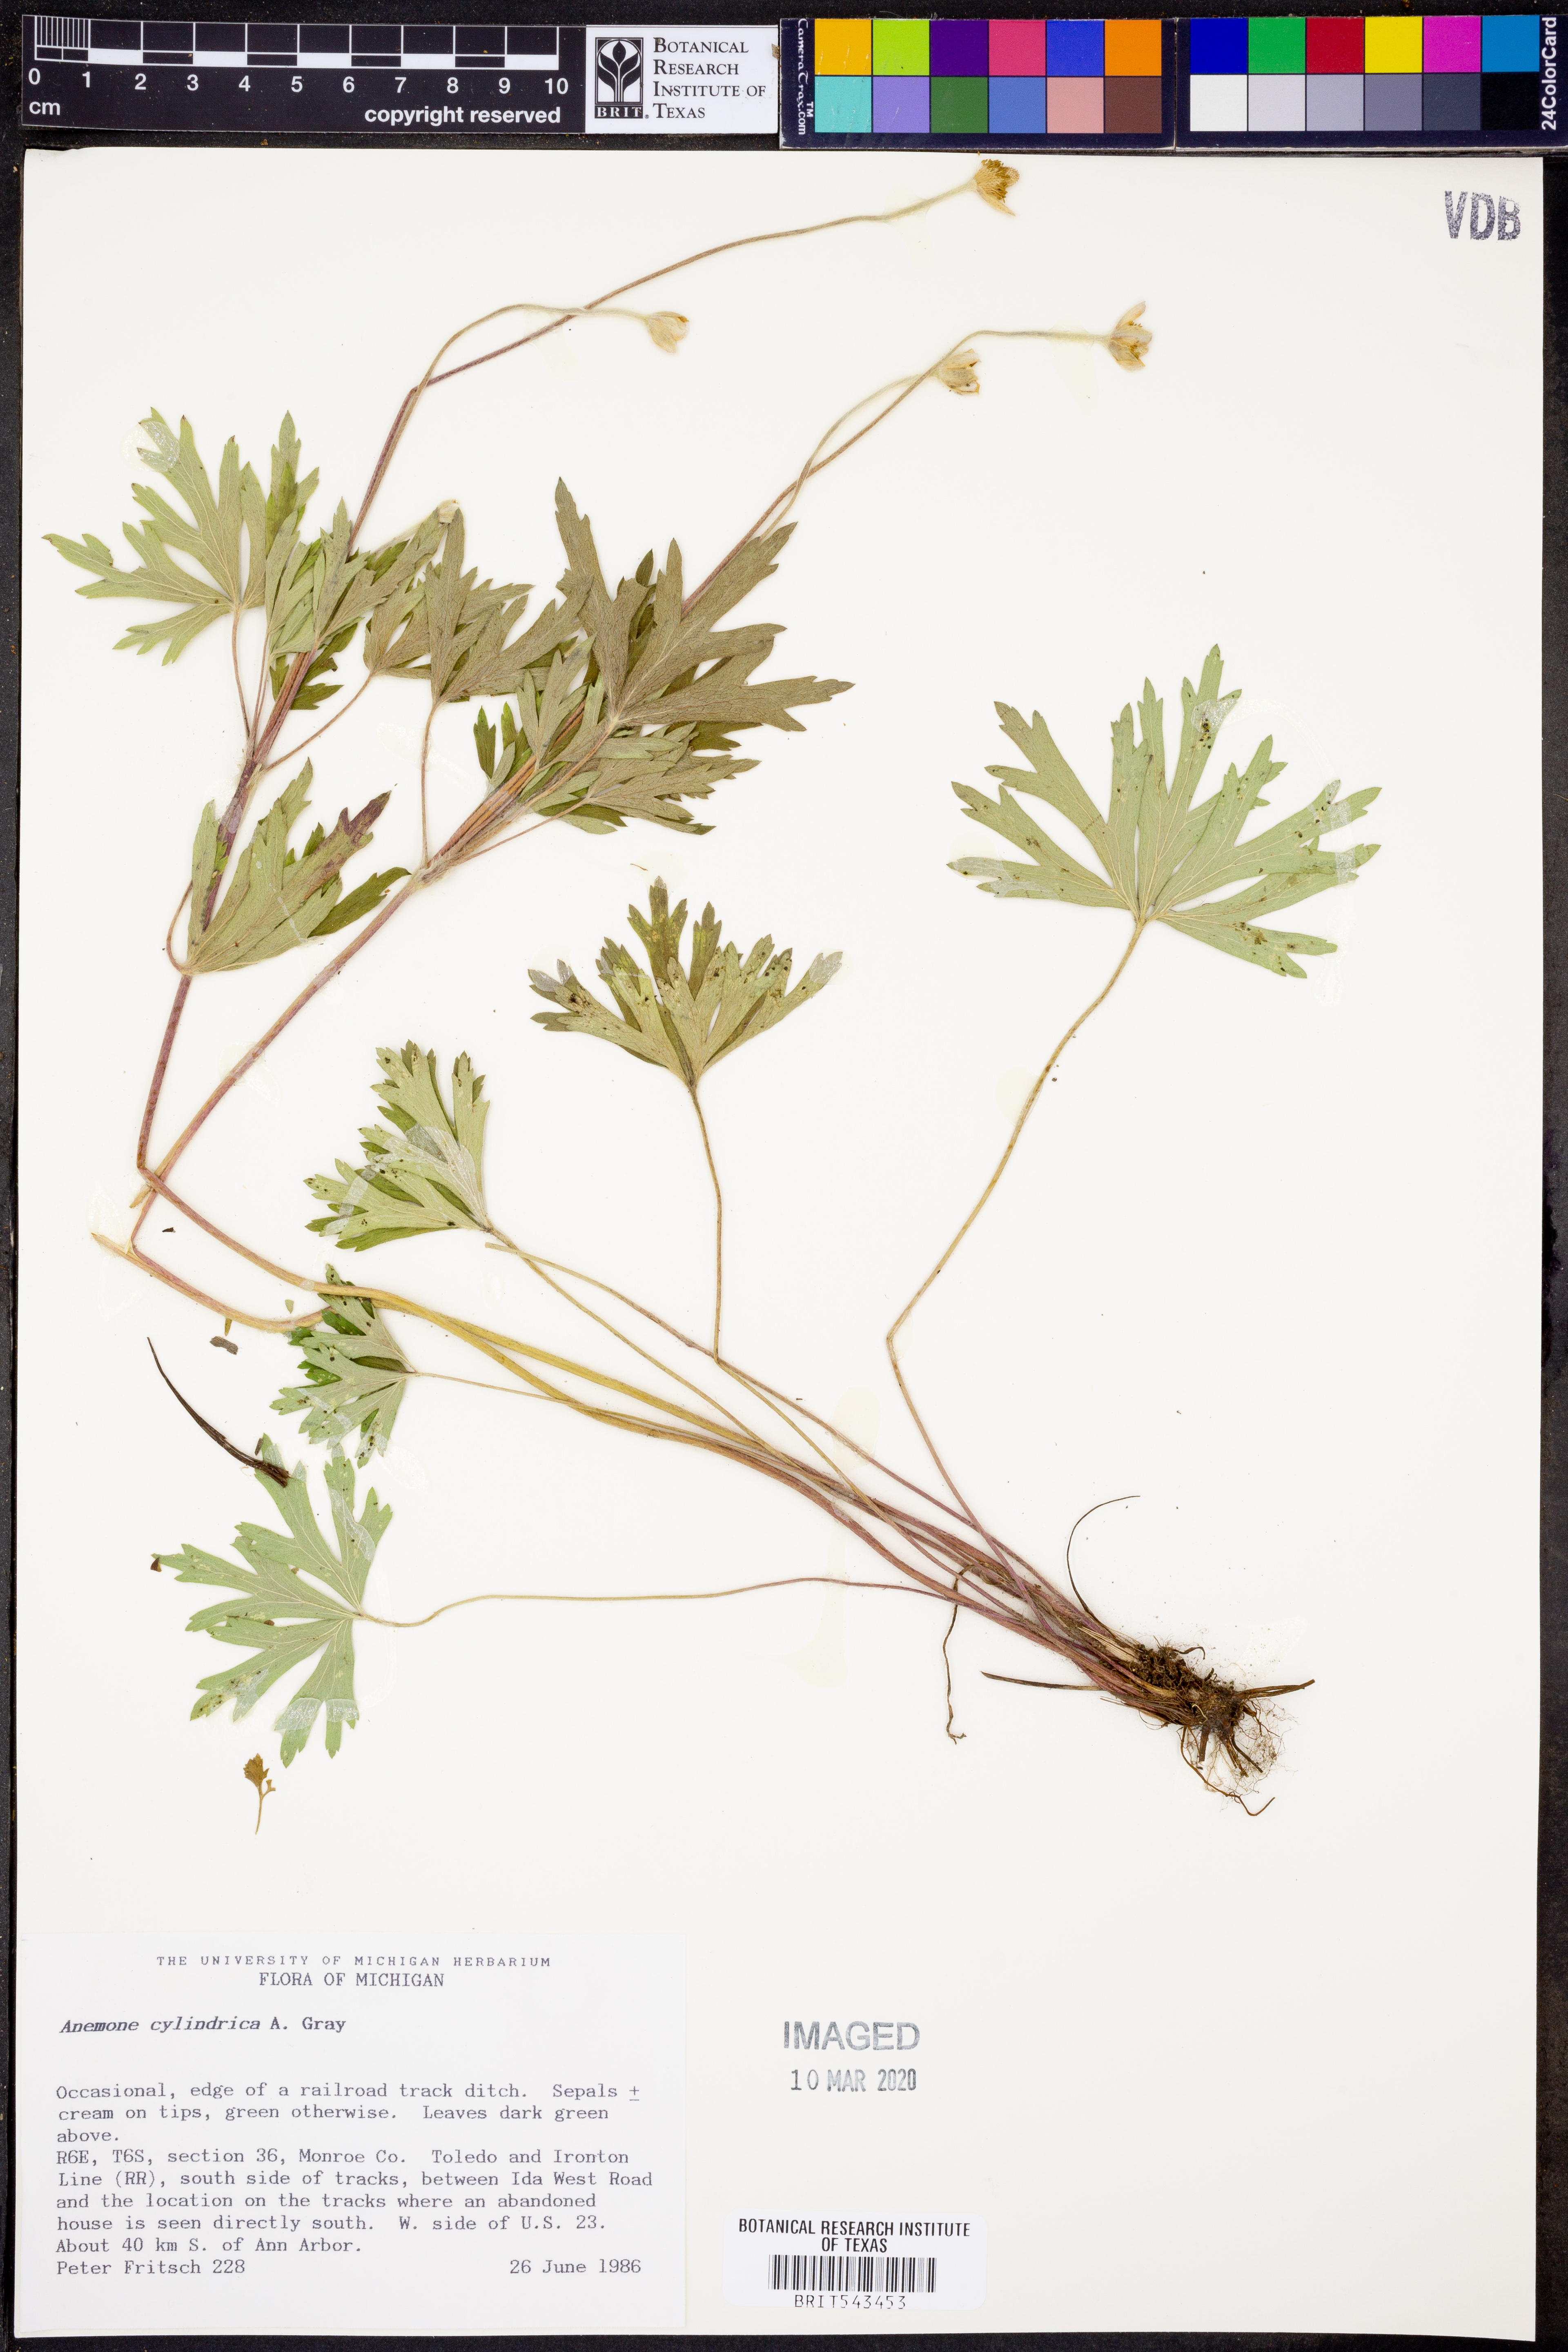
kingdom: Plantae
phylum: Tracheophyta
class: Magnoliopsida
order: Ranunculales
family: Ranunculaceae
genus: Anemone
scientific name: Anemone cylindrica
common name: Candle anemone
